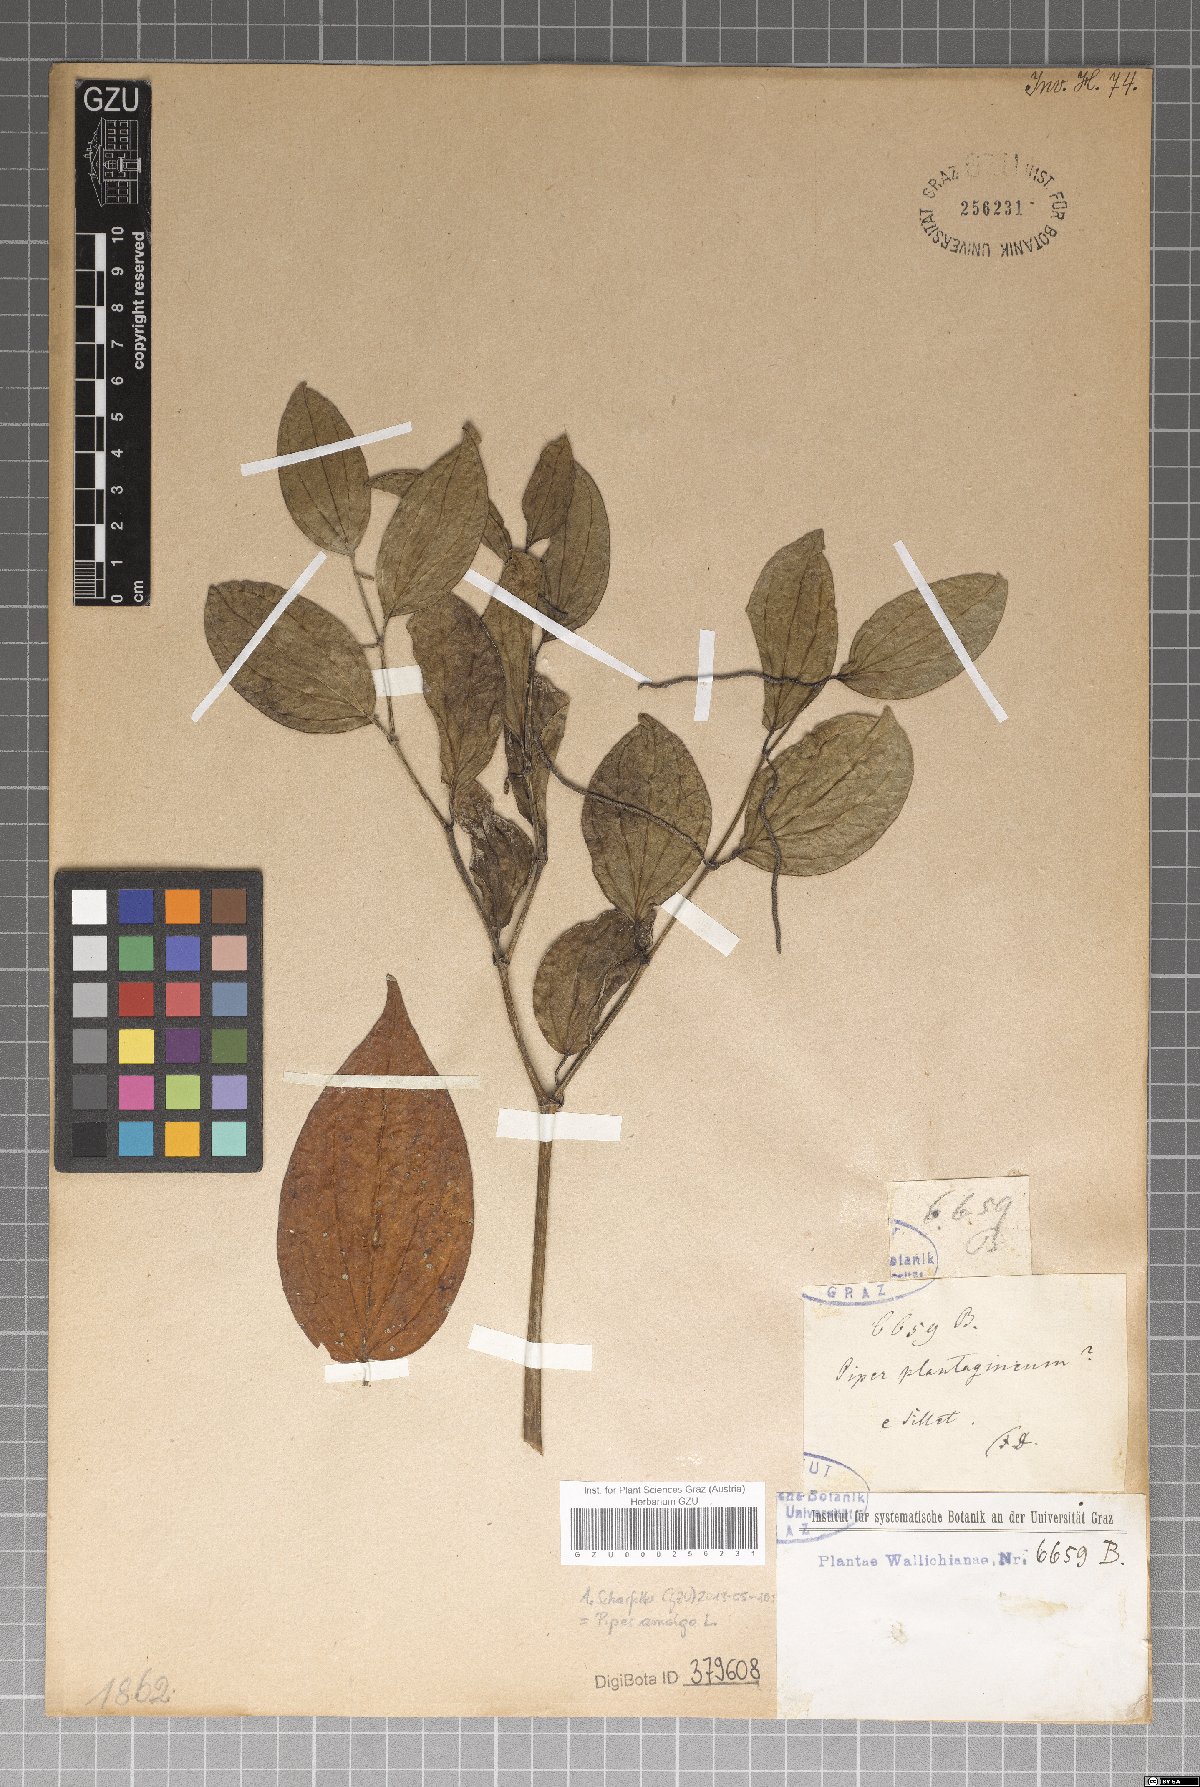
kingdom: Plantae
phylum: Tracheophyta
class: Magnoliopsida
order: Piperales
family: Piperaceae
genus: Piper
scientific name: Piper amalago
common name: Pepper-elder
